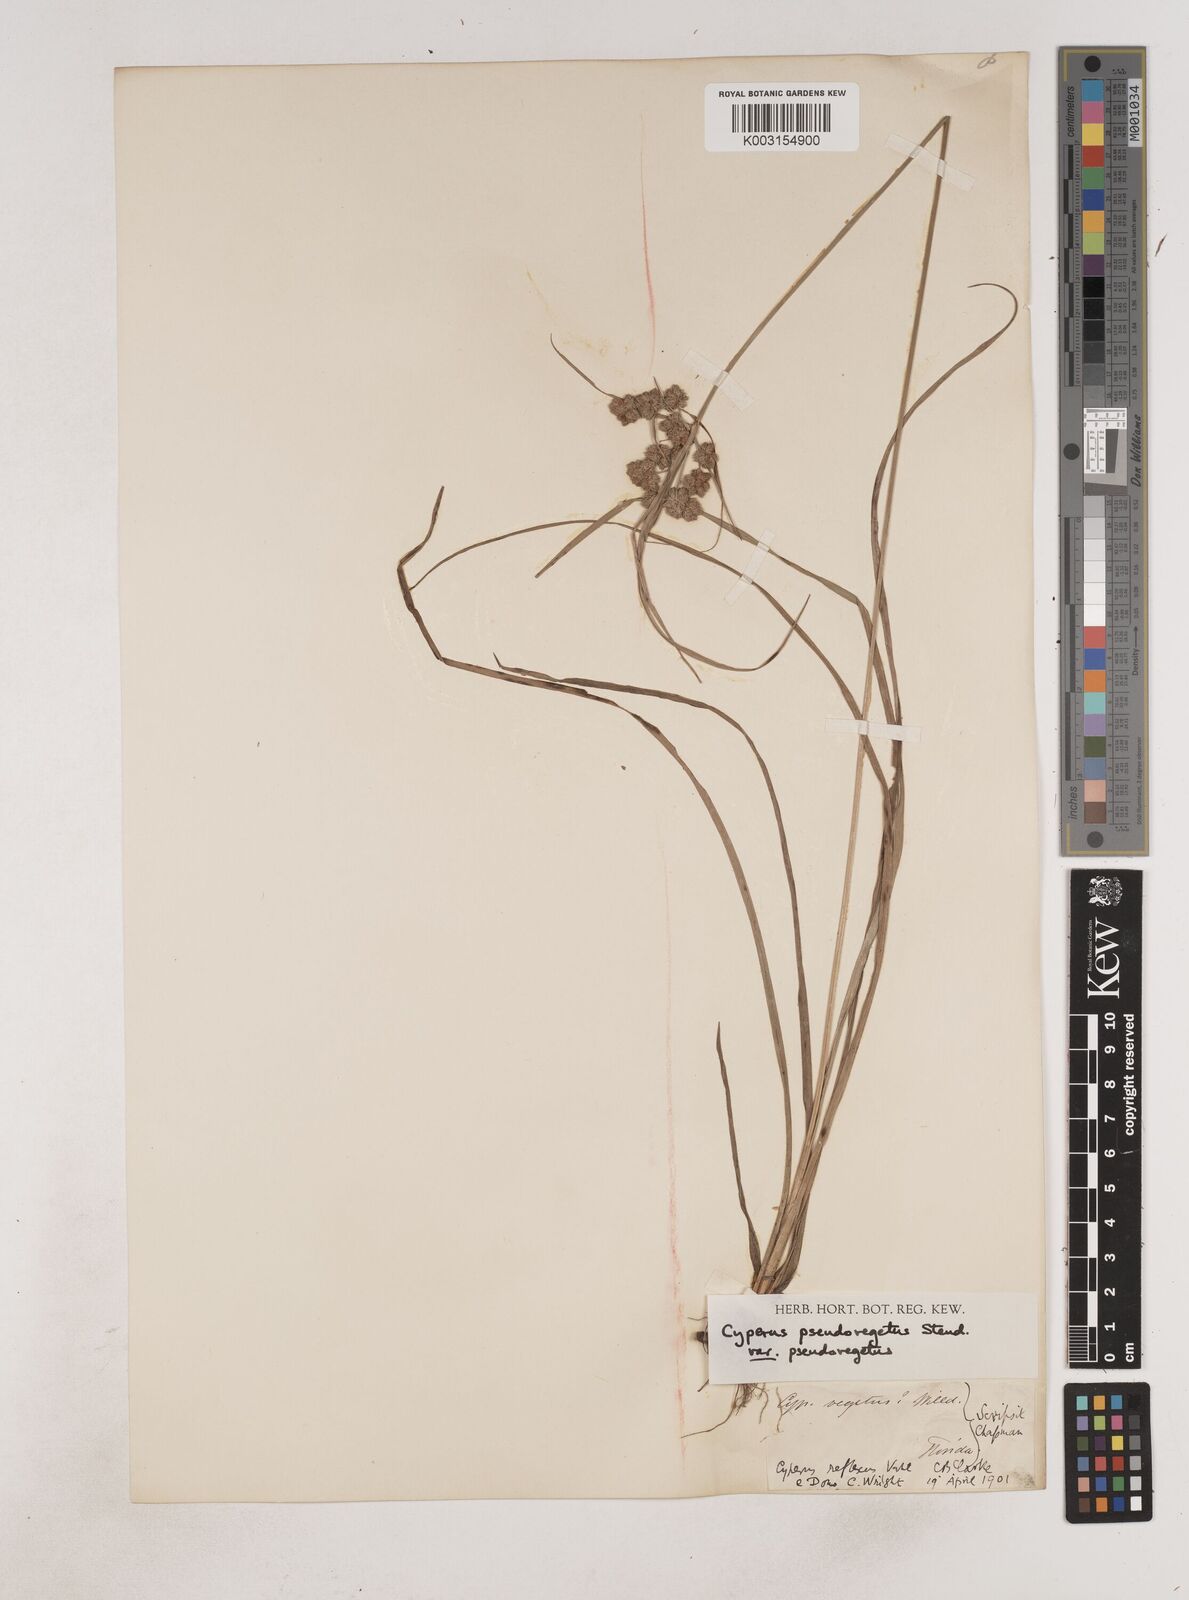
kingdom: Plantae
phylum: Tracheophyta
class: Liliopsida
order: Poales
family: Cyperaceae
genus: Cyperus
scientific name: Cyperus pseudovegetus
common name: Marsh flat sedge
